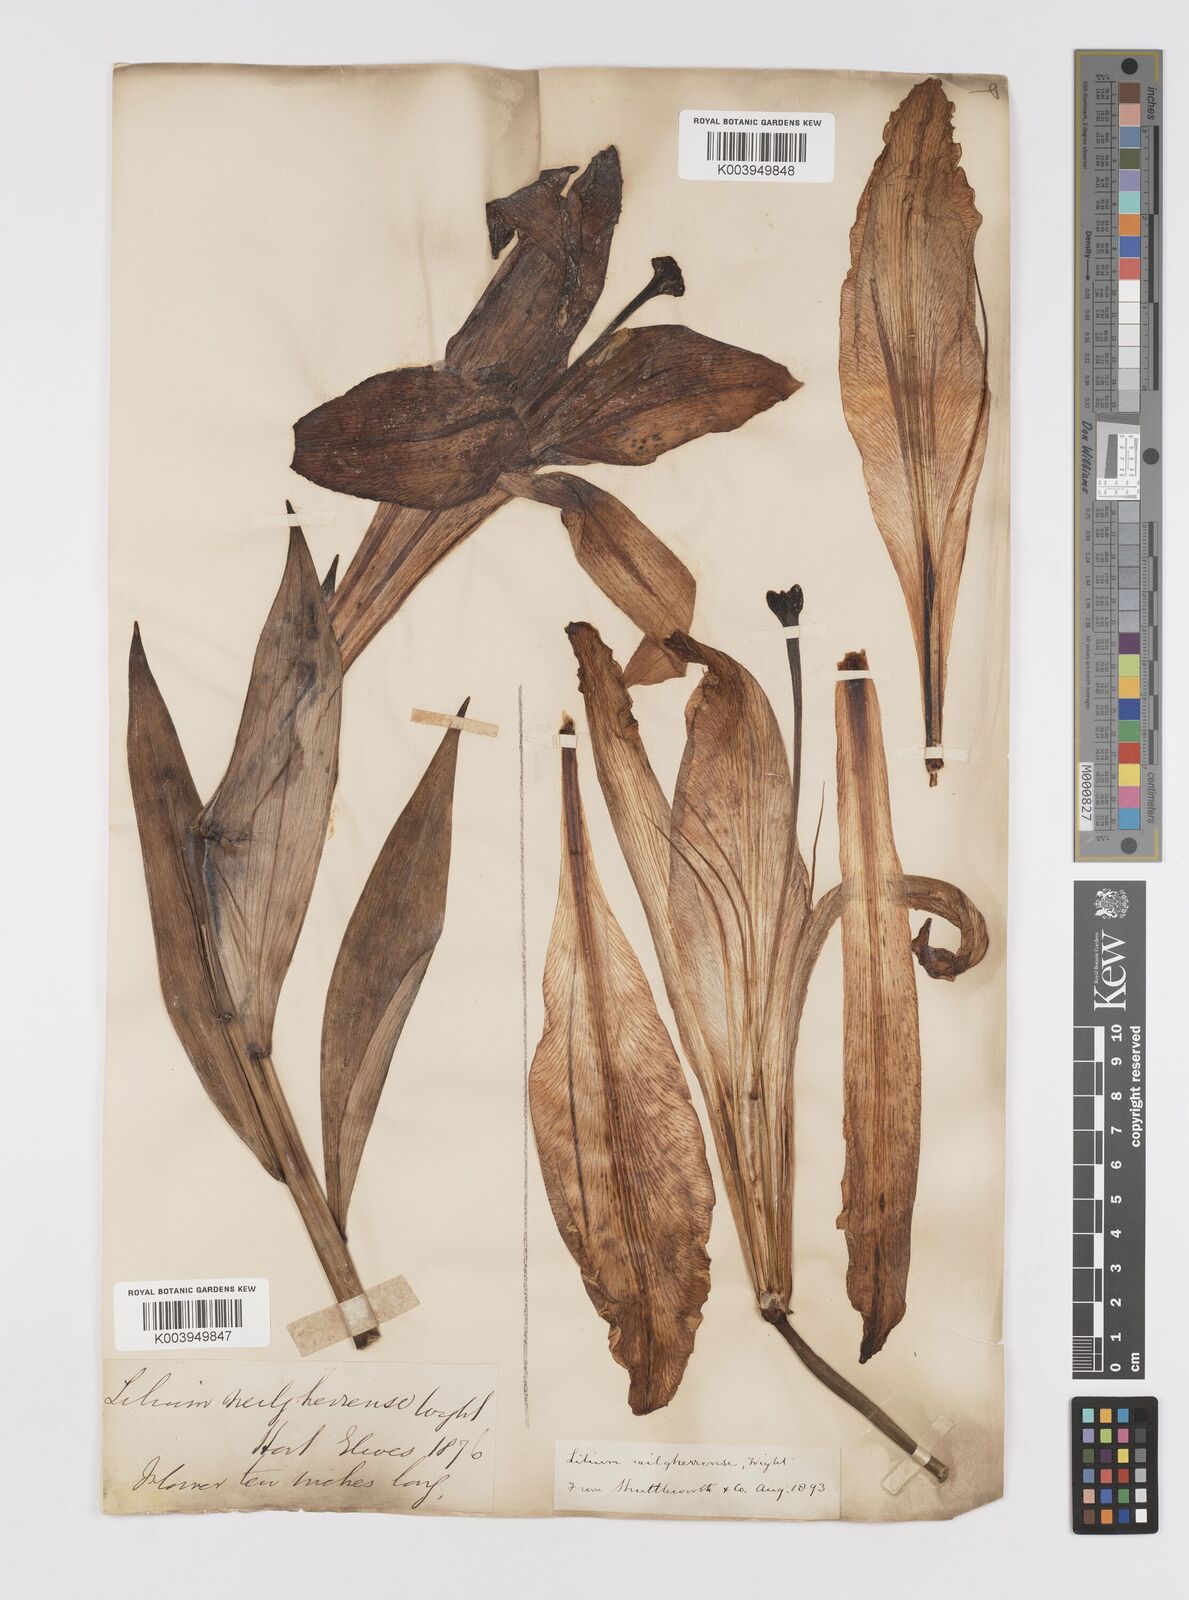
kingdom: Plantae
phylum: Tracheophyta
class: Liliopsida
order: Liliales
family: Liliaceae
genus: Lilium
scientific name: Lilium wallichianum
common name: Wallich's lily
